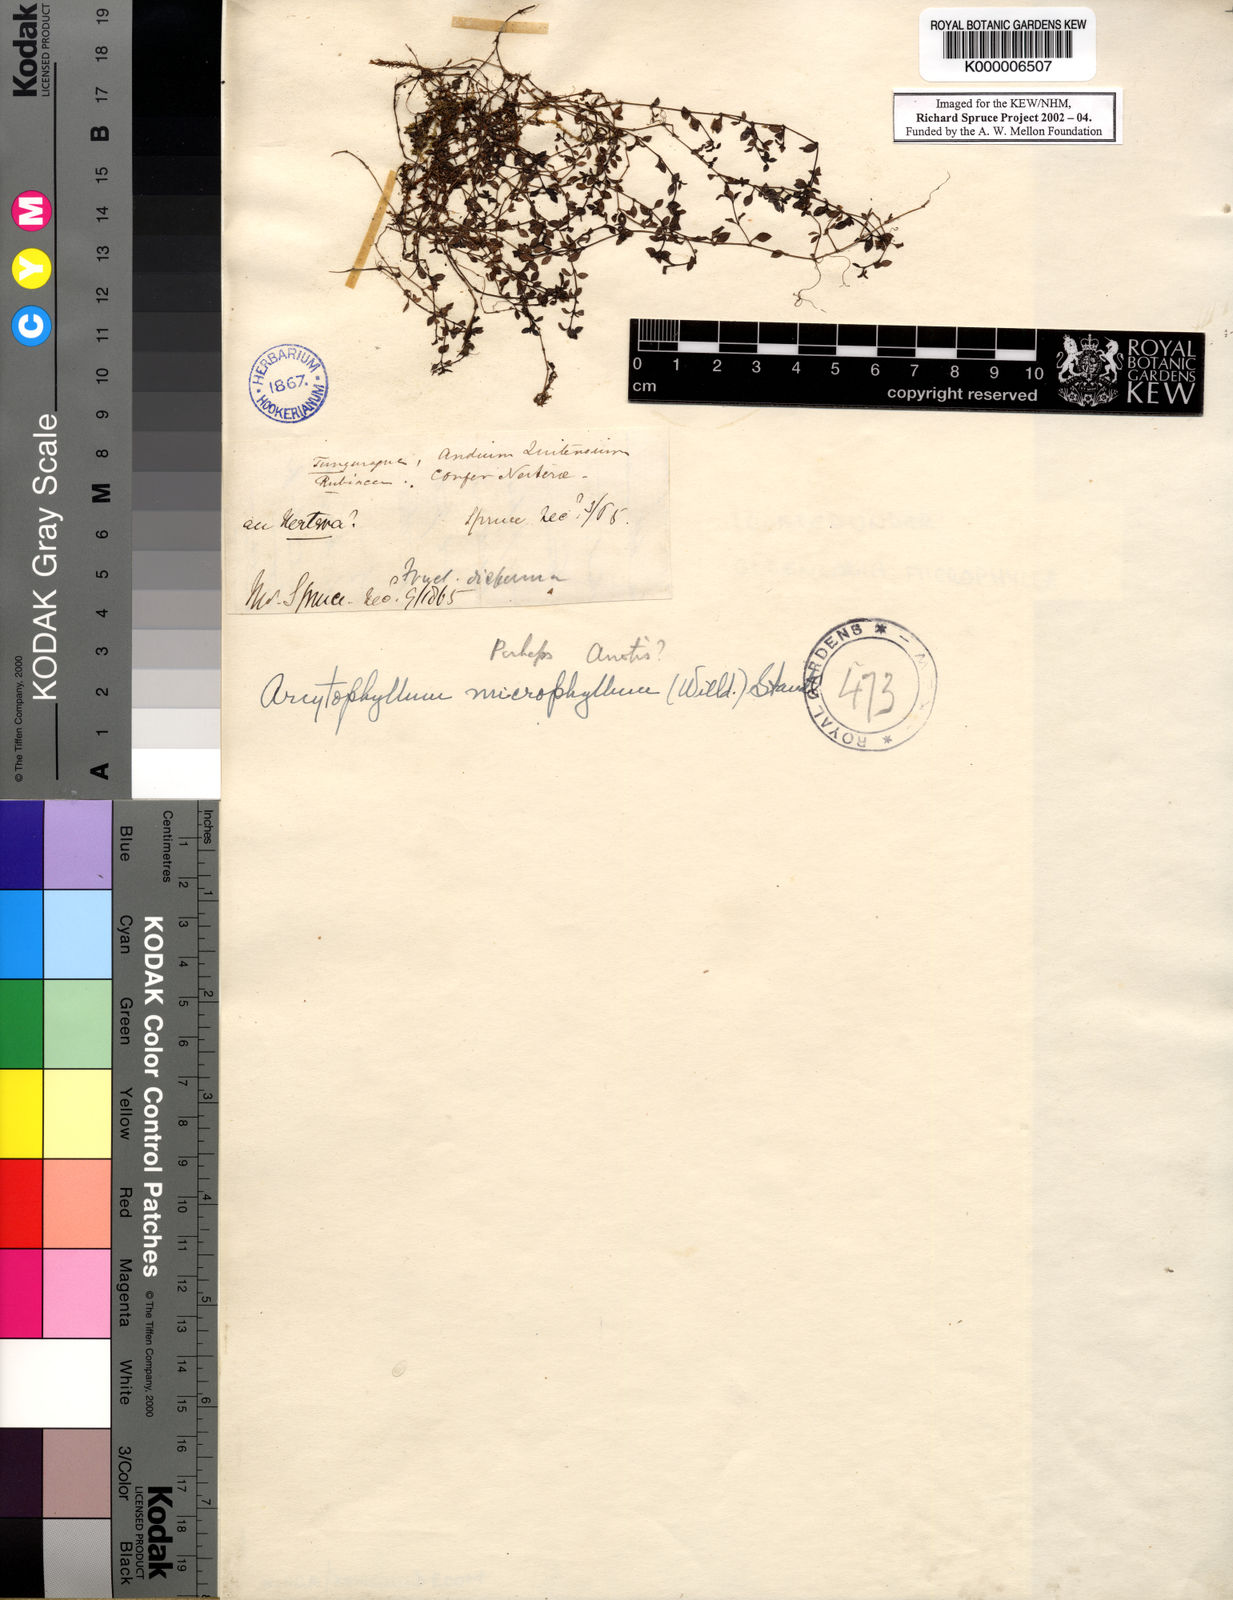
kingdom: Plantae
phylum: Tracheophyta
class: Magnoliopsida
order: Gentianales
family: Rubiaceae
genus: Oldenlandia
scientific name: Oldenlandia neomicrophylla
